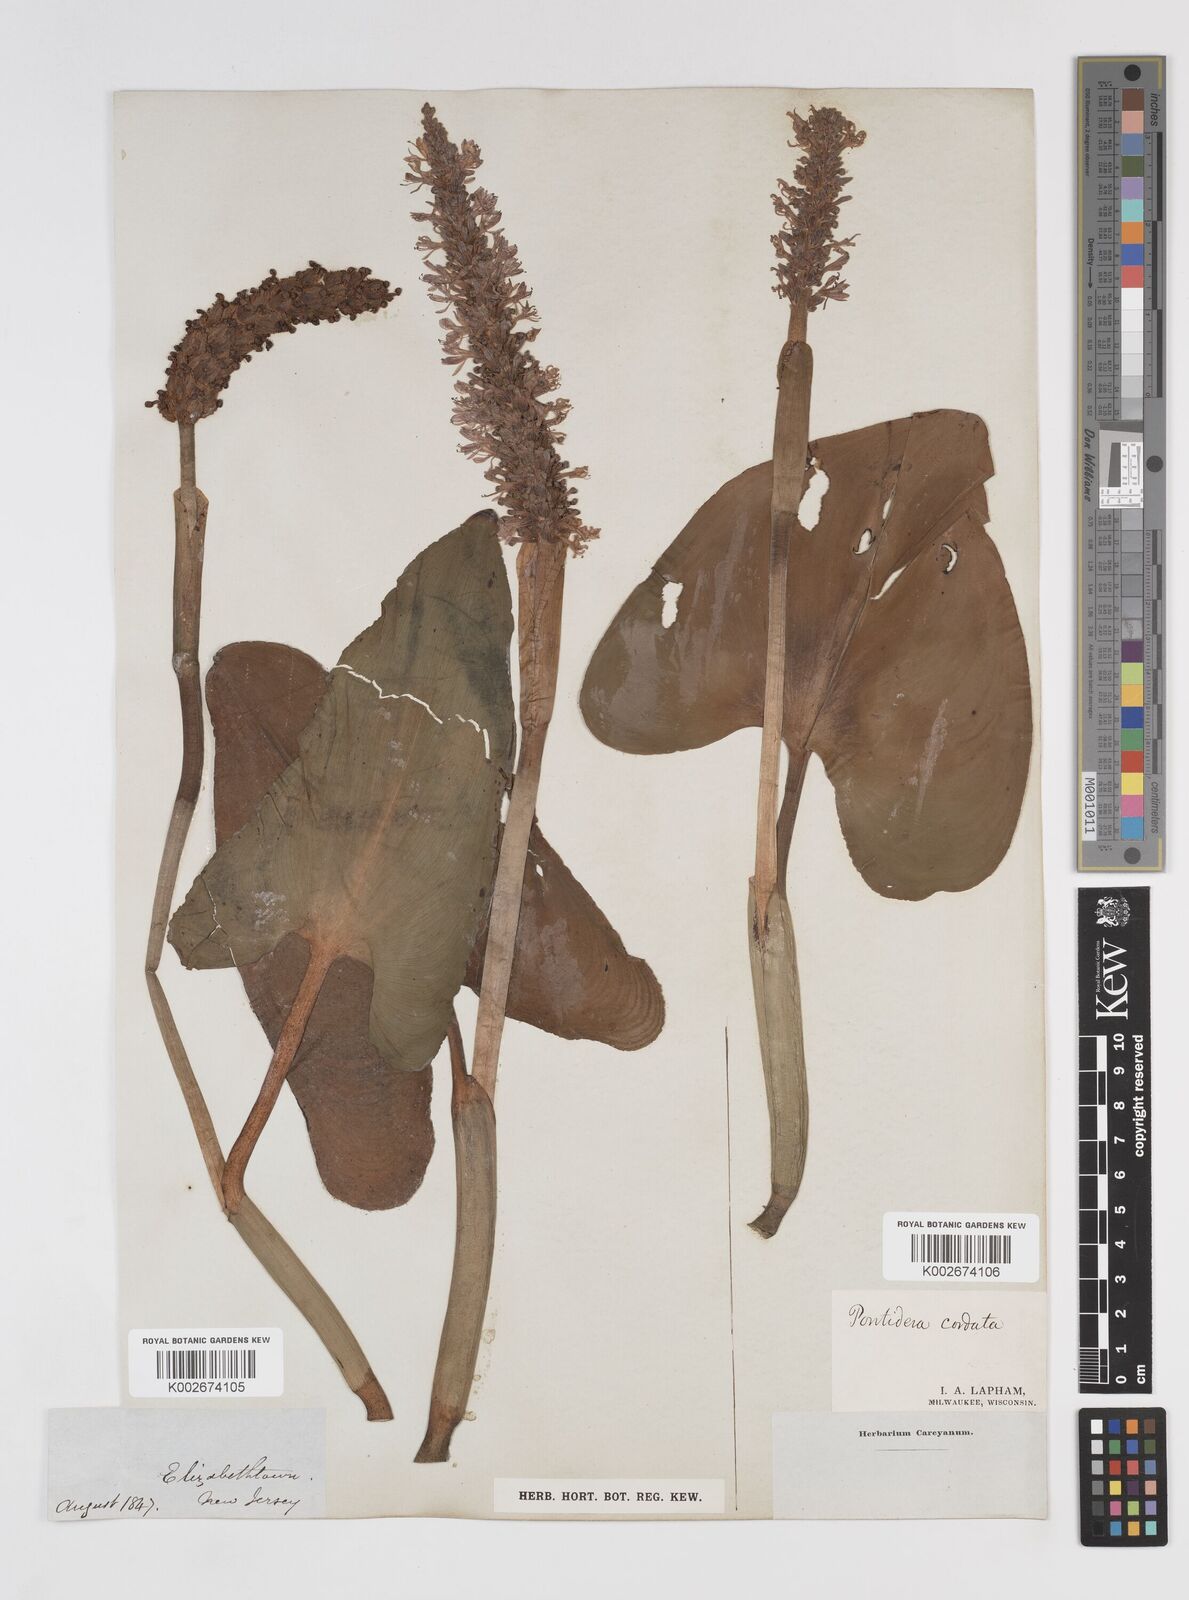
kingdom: Plantae
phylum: Tracheophyta
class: Liliopsida
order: Commelinales
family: Pontederiaceae
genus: Pontederia
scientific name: Pontederia cordata
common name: Pickerelweed
